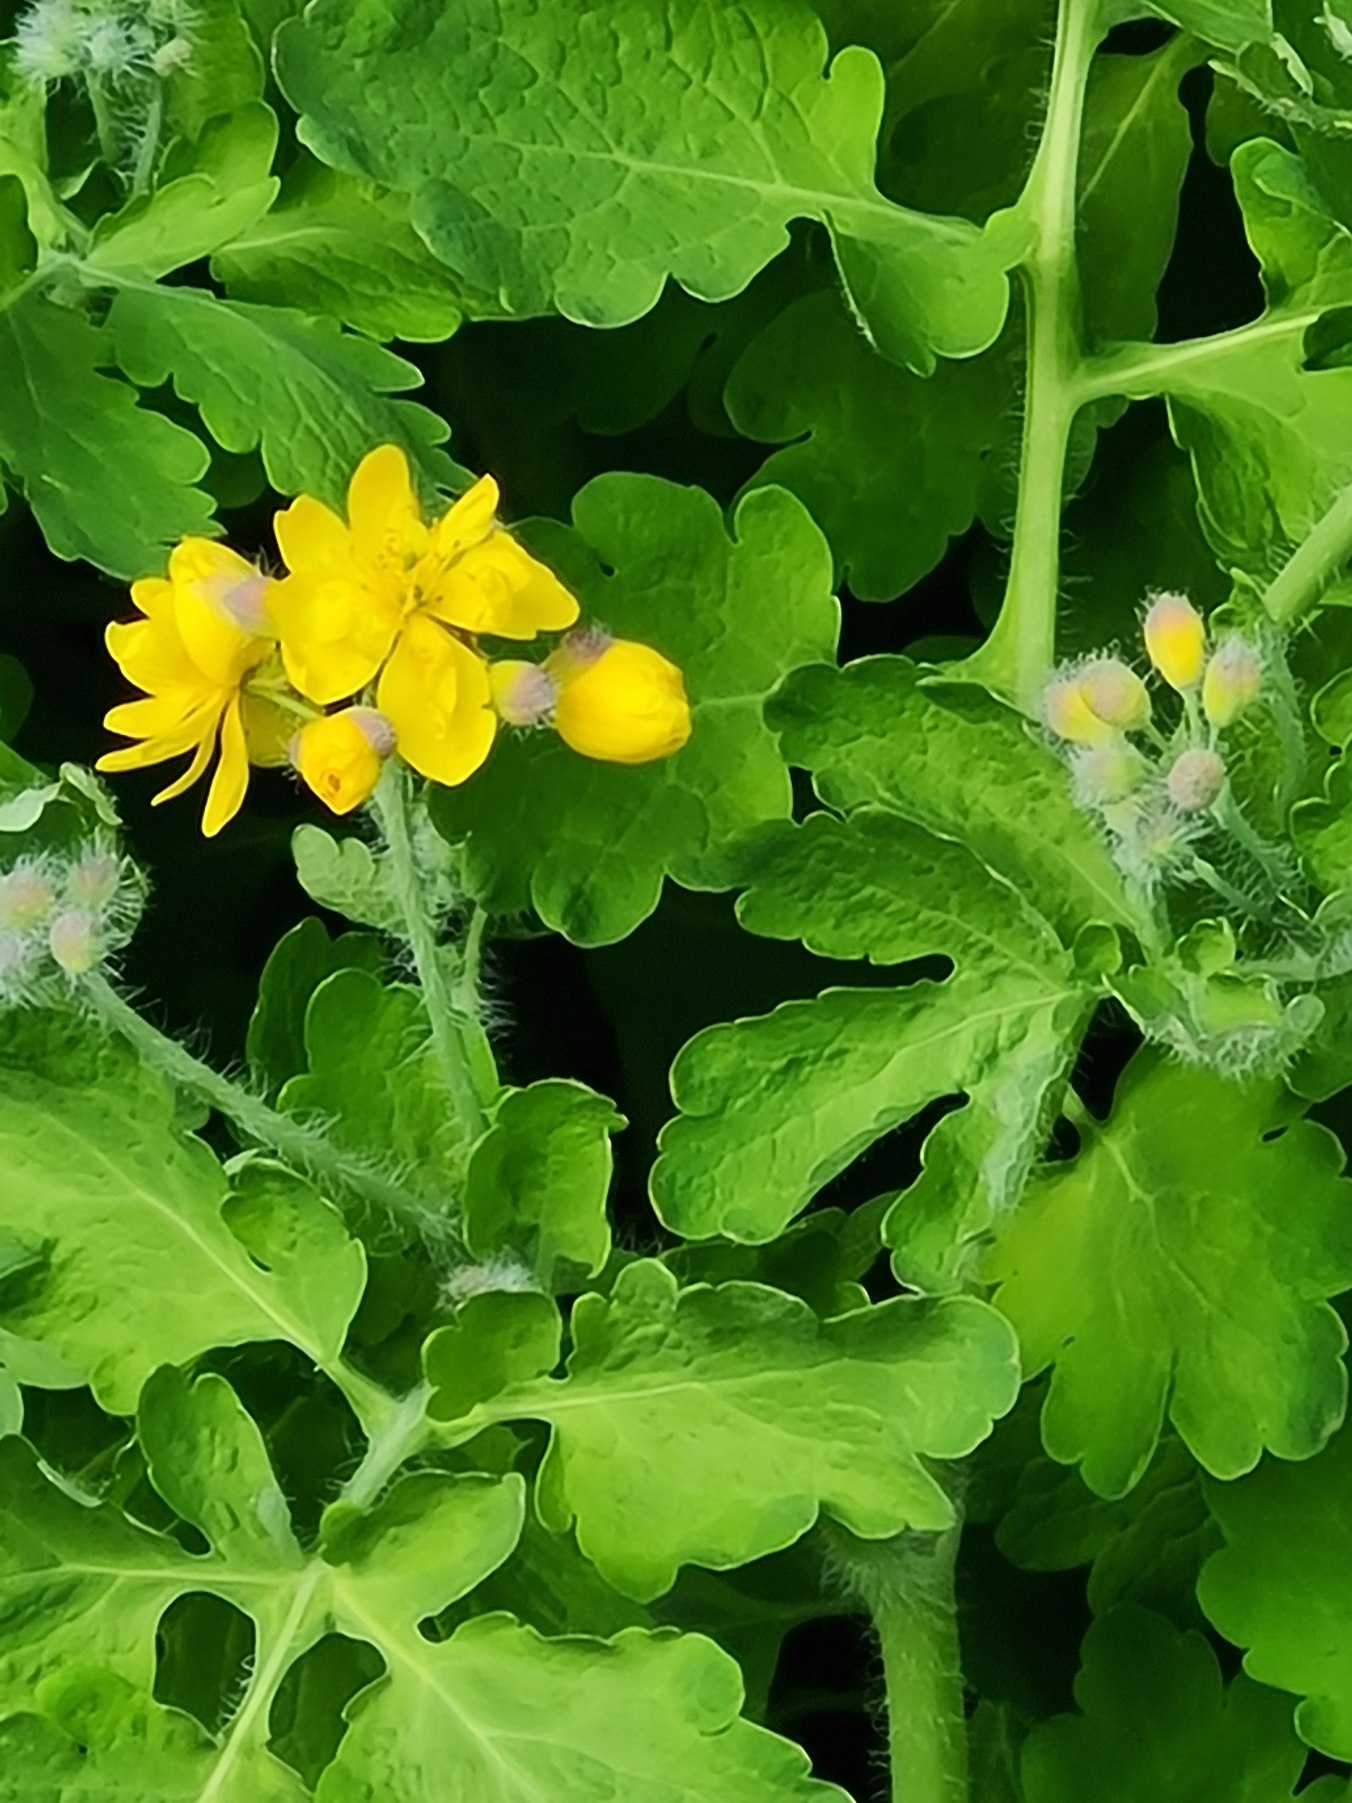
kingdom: Plantae
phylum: Tracheophyta
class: Magnoliopsida
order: Ranunculales
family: Papaveraceae
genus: Chelidonium
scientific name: Chelidonium majus
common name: Svaleurt
